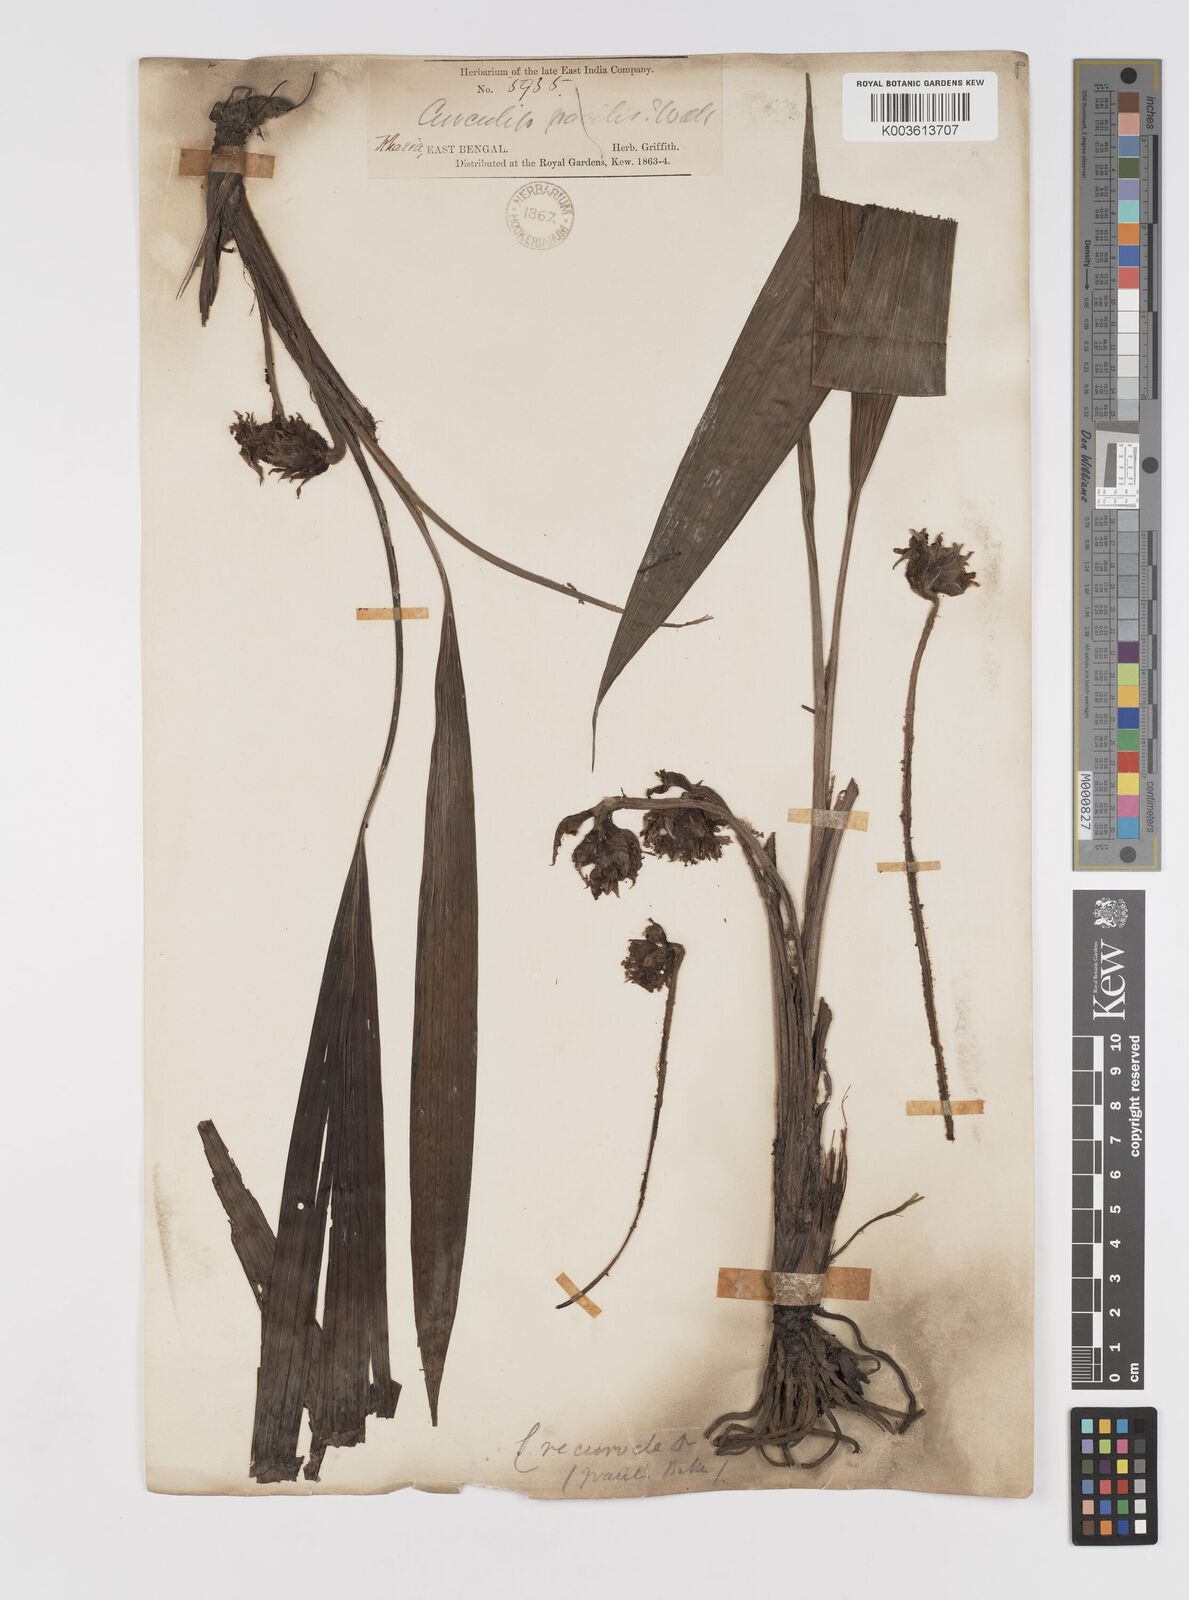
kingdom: Plantae
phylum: Tracheophyta
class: Liliopsida
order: Asparagales
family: Hypoxidaceae
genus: Curculigo
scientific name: Curculigo capitulata
